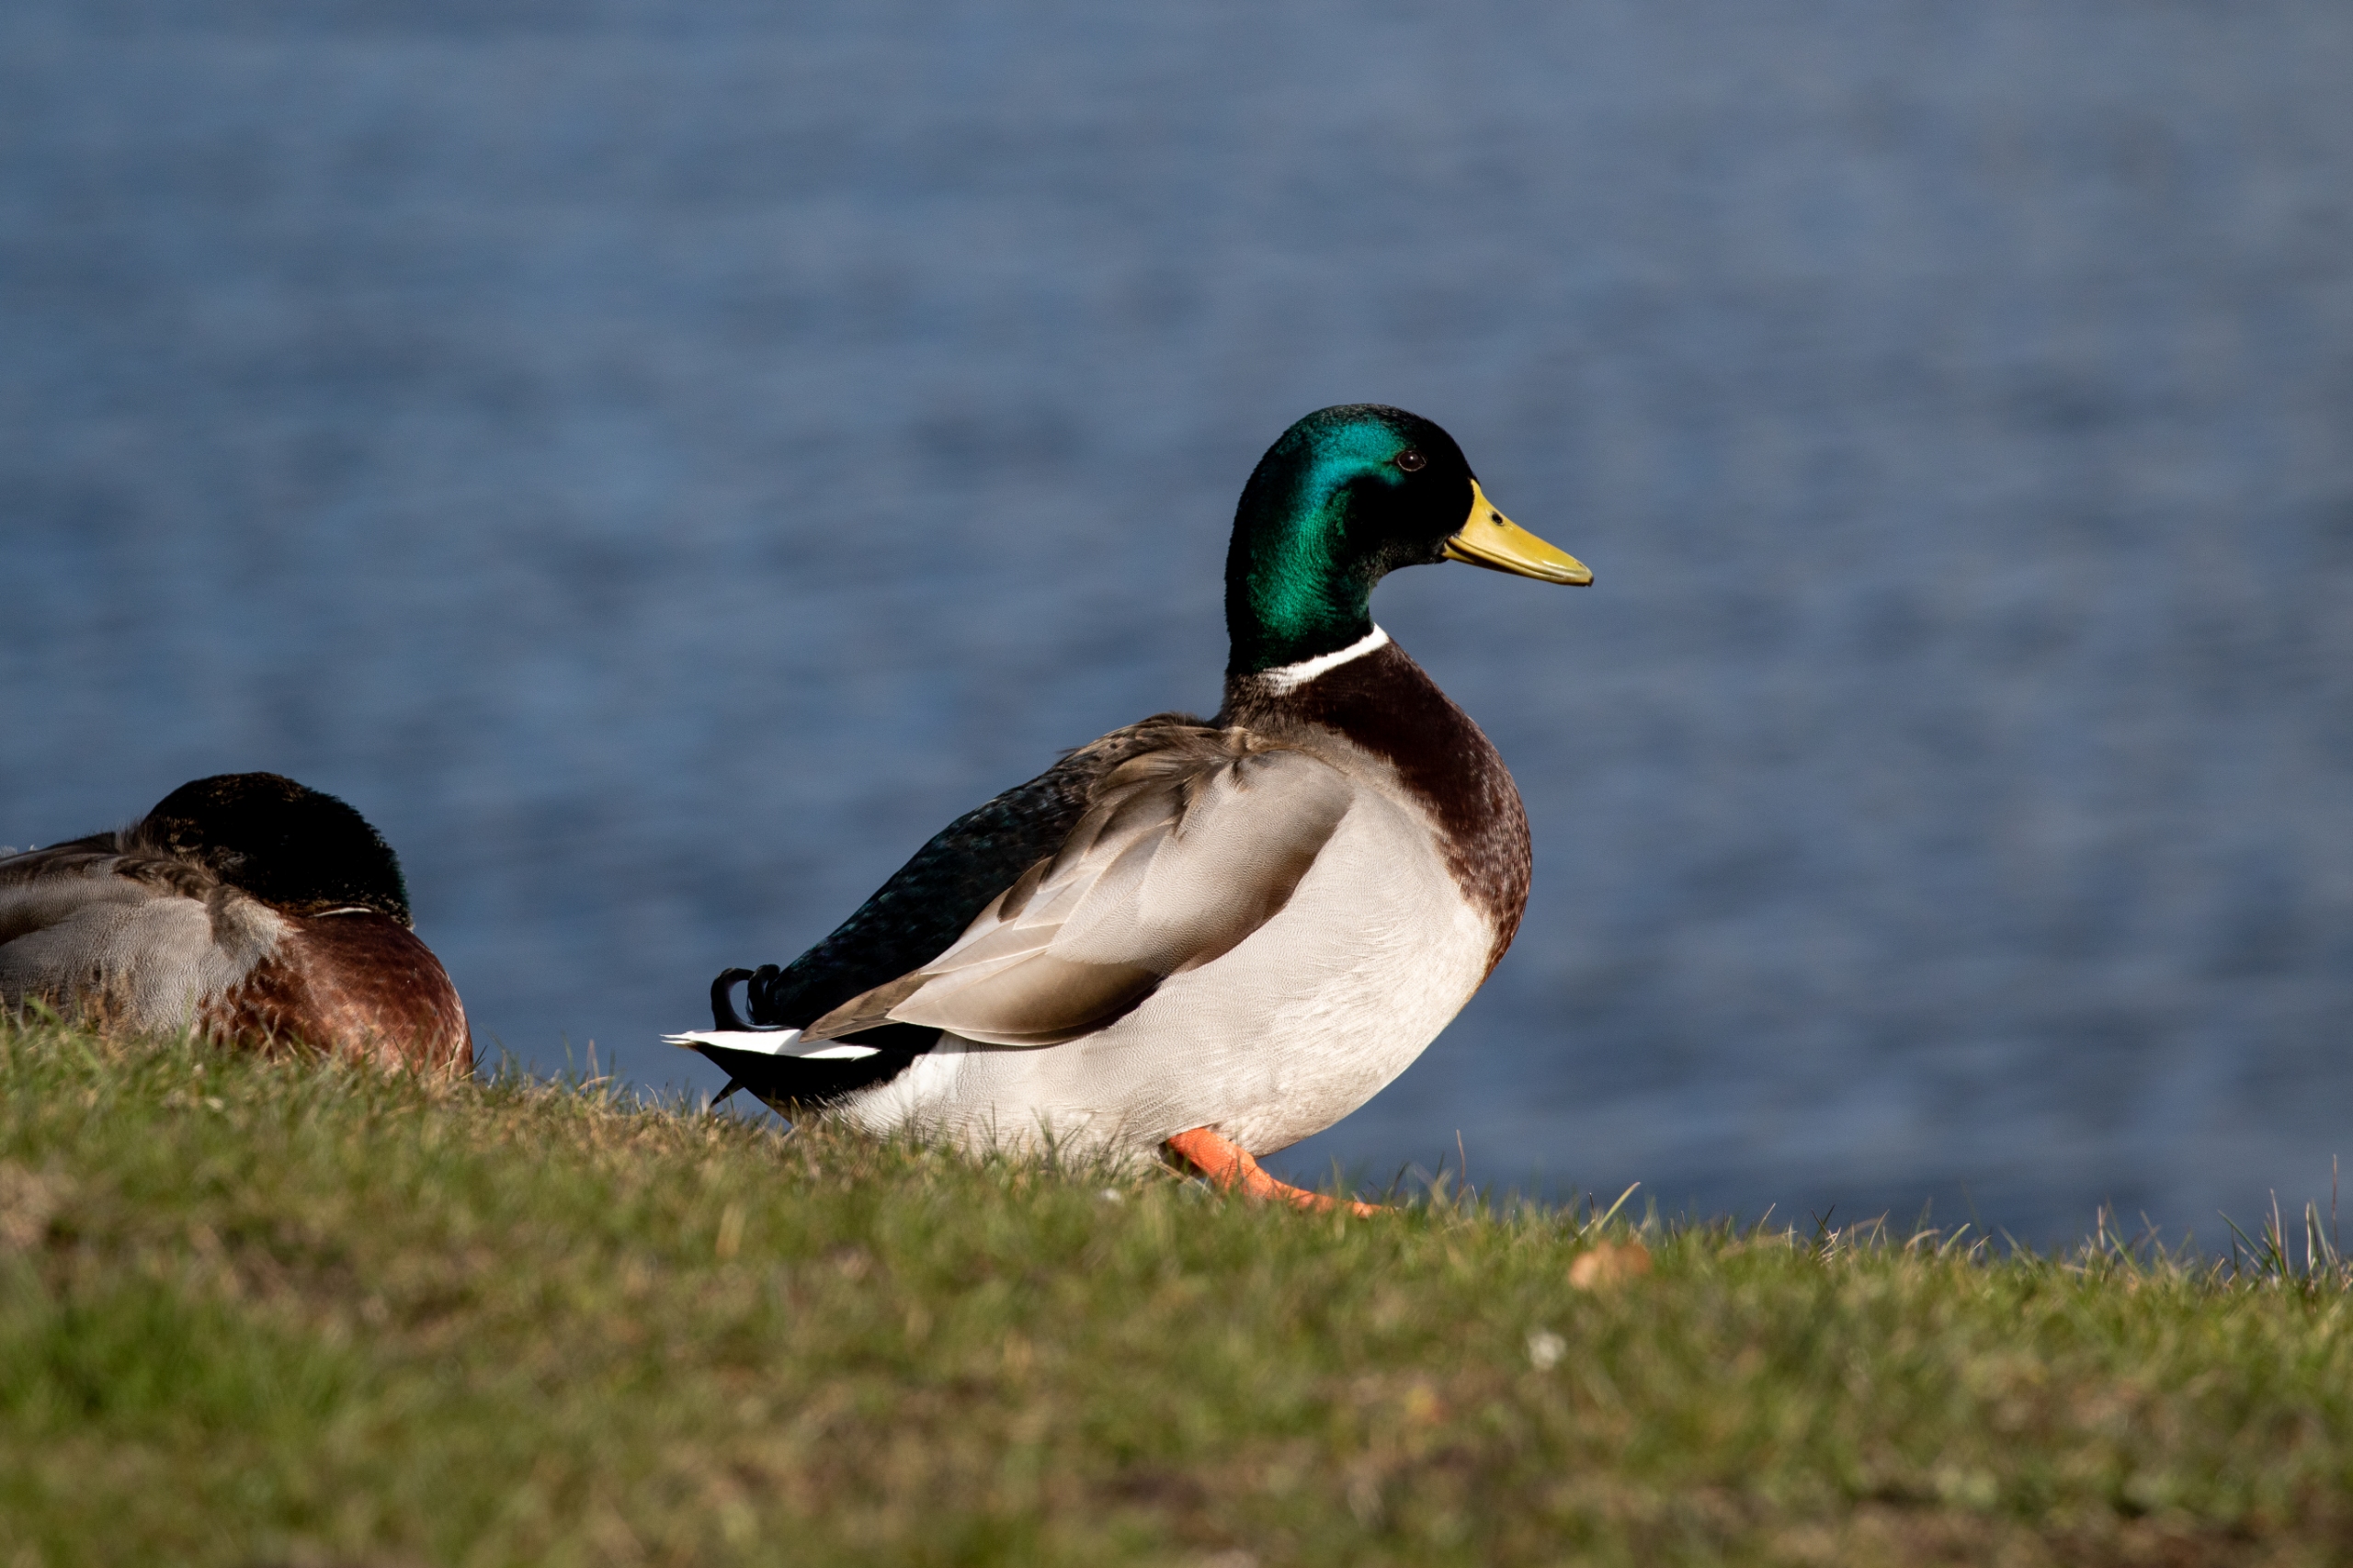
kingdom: Animalia
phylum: Chordata
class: Aves
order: Anseriformes
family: Anatidae
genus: Anas
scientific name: Anas platyrhynchos
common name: Gråand
